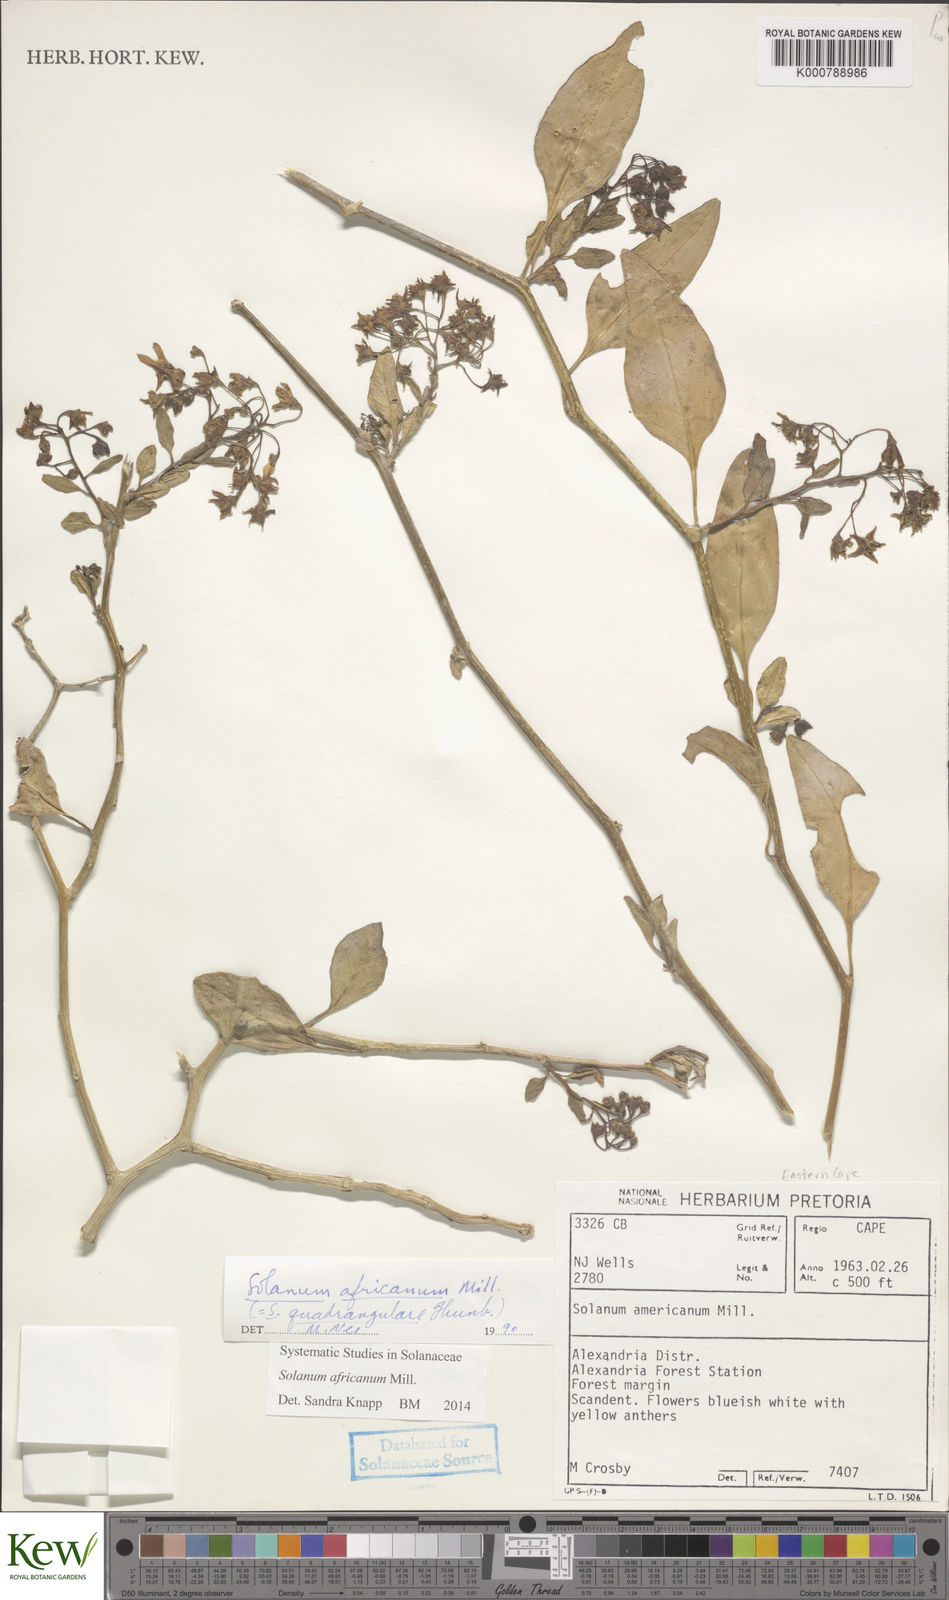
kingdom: Plantae
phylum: Tracheophyta
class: Magnoliopsida
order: Solanales
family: Solanaceae
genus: Solanum
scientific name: Solanum africanum
